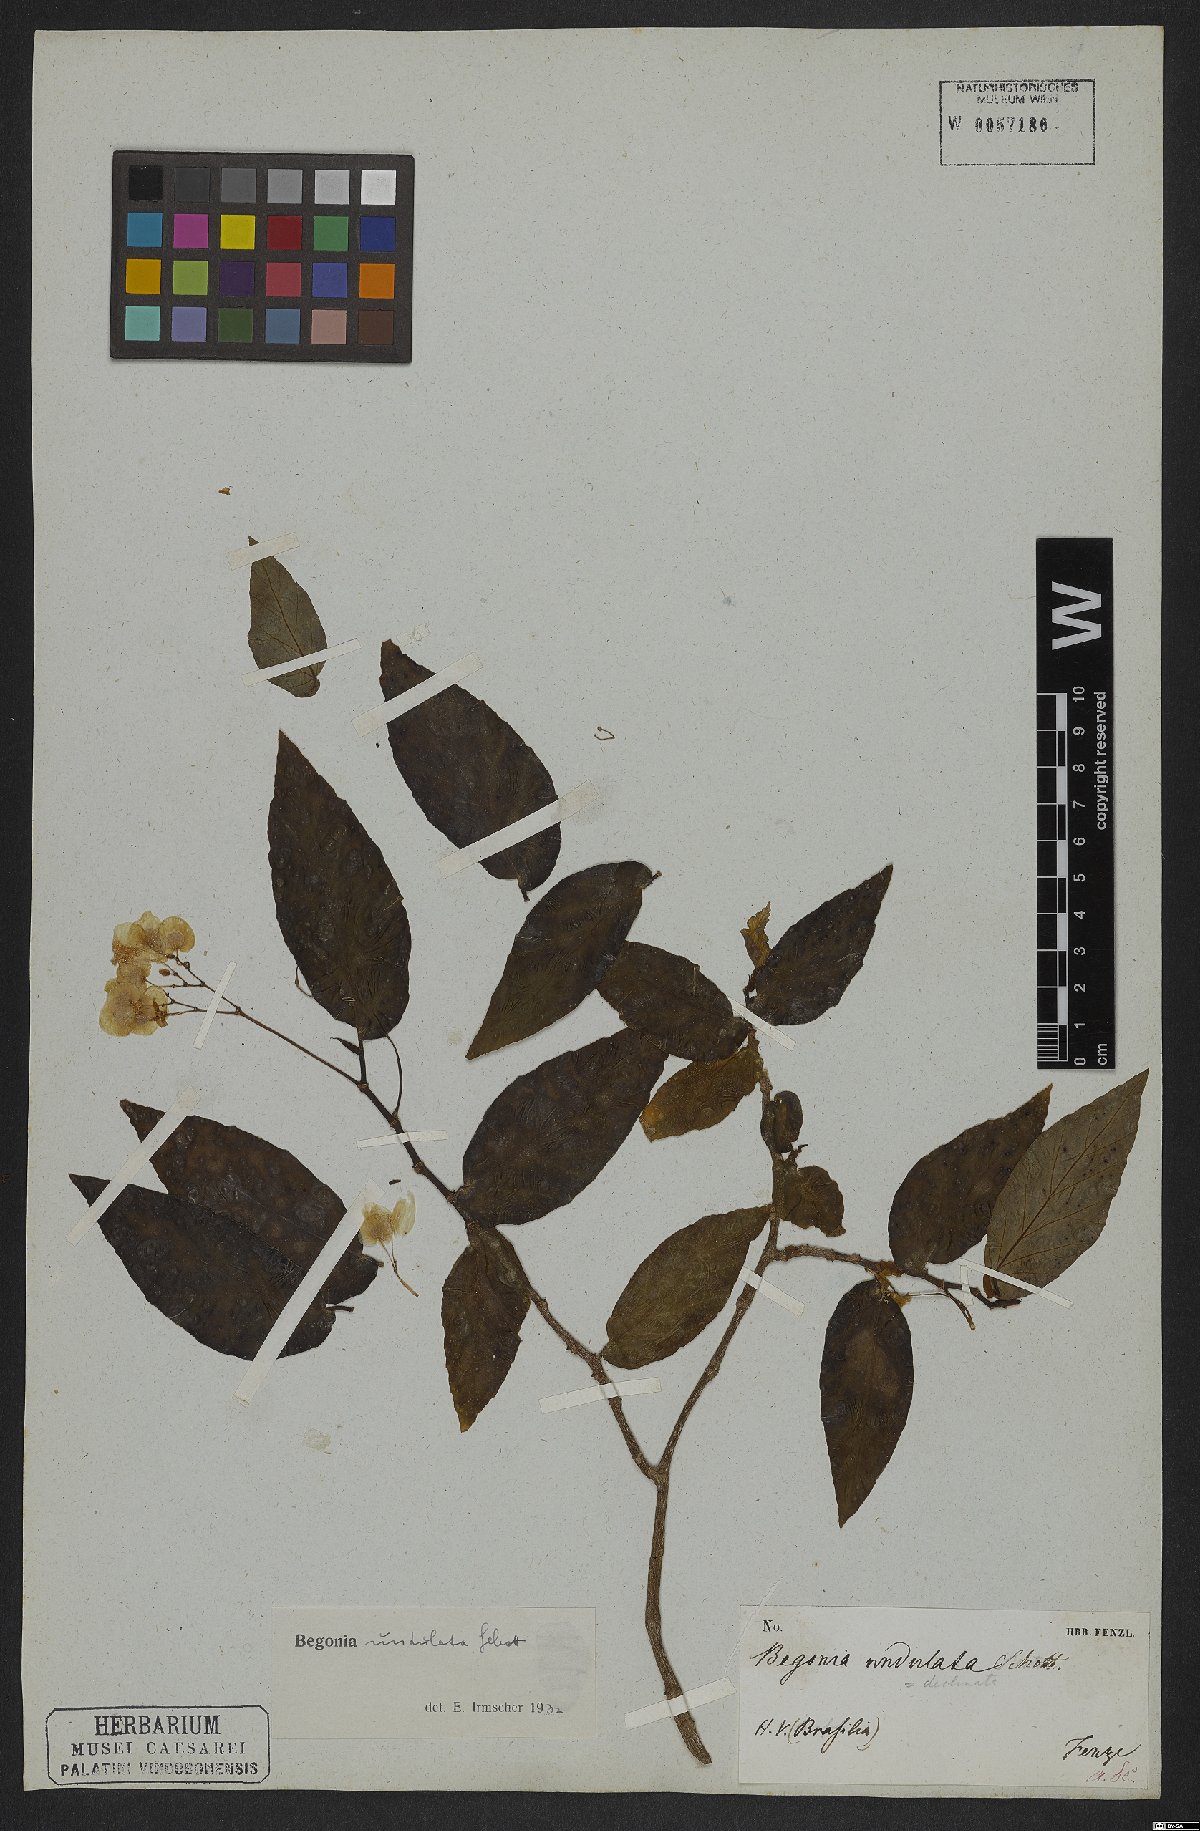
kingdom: Plantae
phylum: Tracheophyta
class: Magnoliopsida
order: Cucurbitales
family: Begoniaceae
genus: Begonia
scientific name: Begonia undulata
